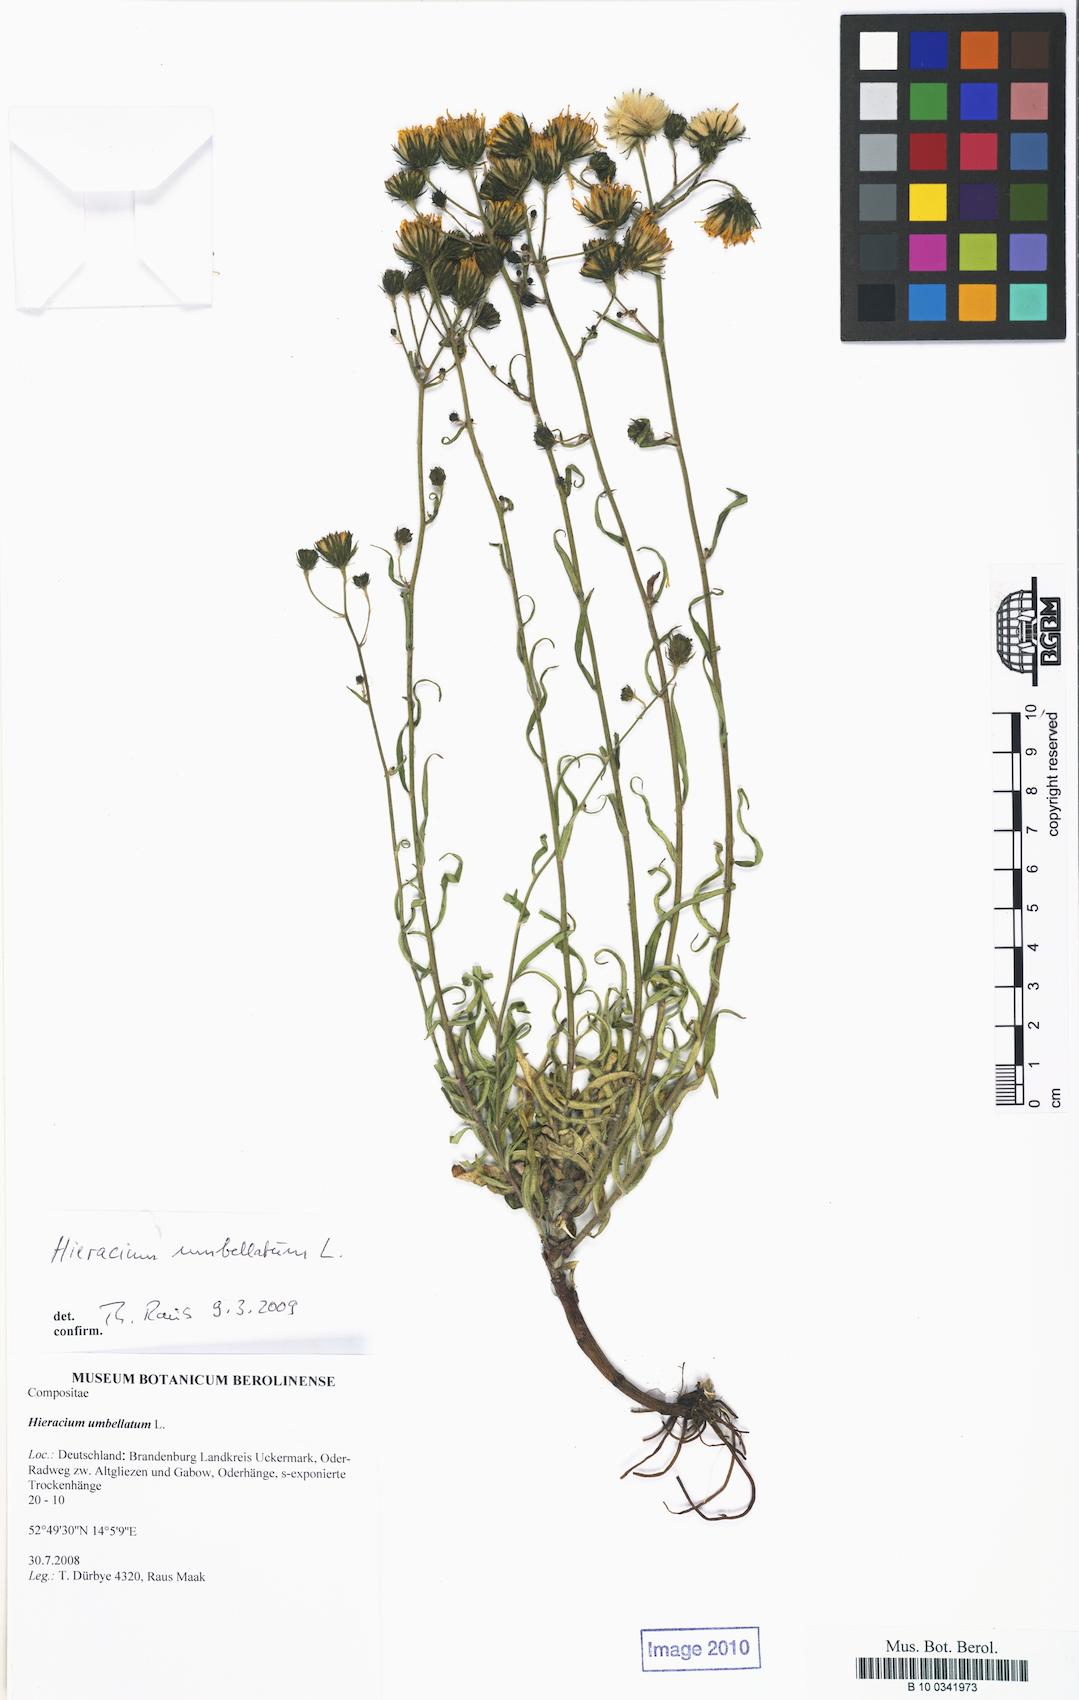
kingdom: Plantae
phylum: Tracheophyta
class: Magnoliopsida
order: Asterales
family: Asteraceae
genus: Hieracium
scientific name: Hieracium umbellatum
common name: Northern hawkweed
